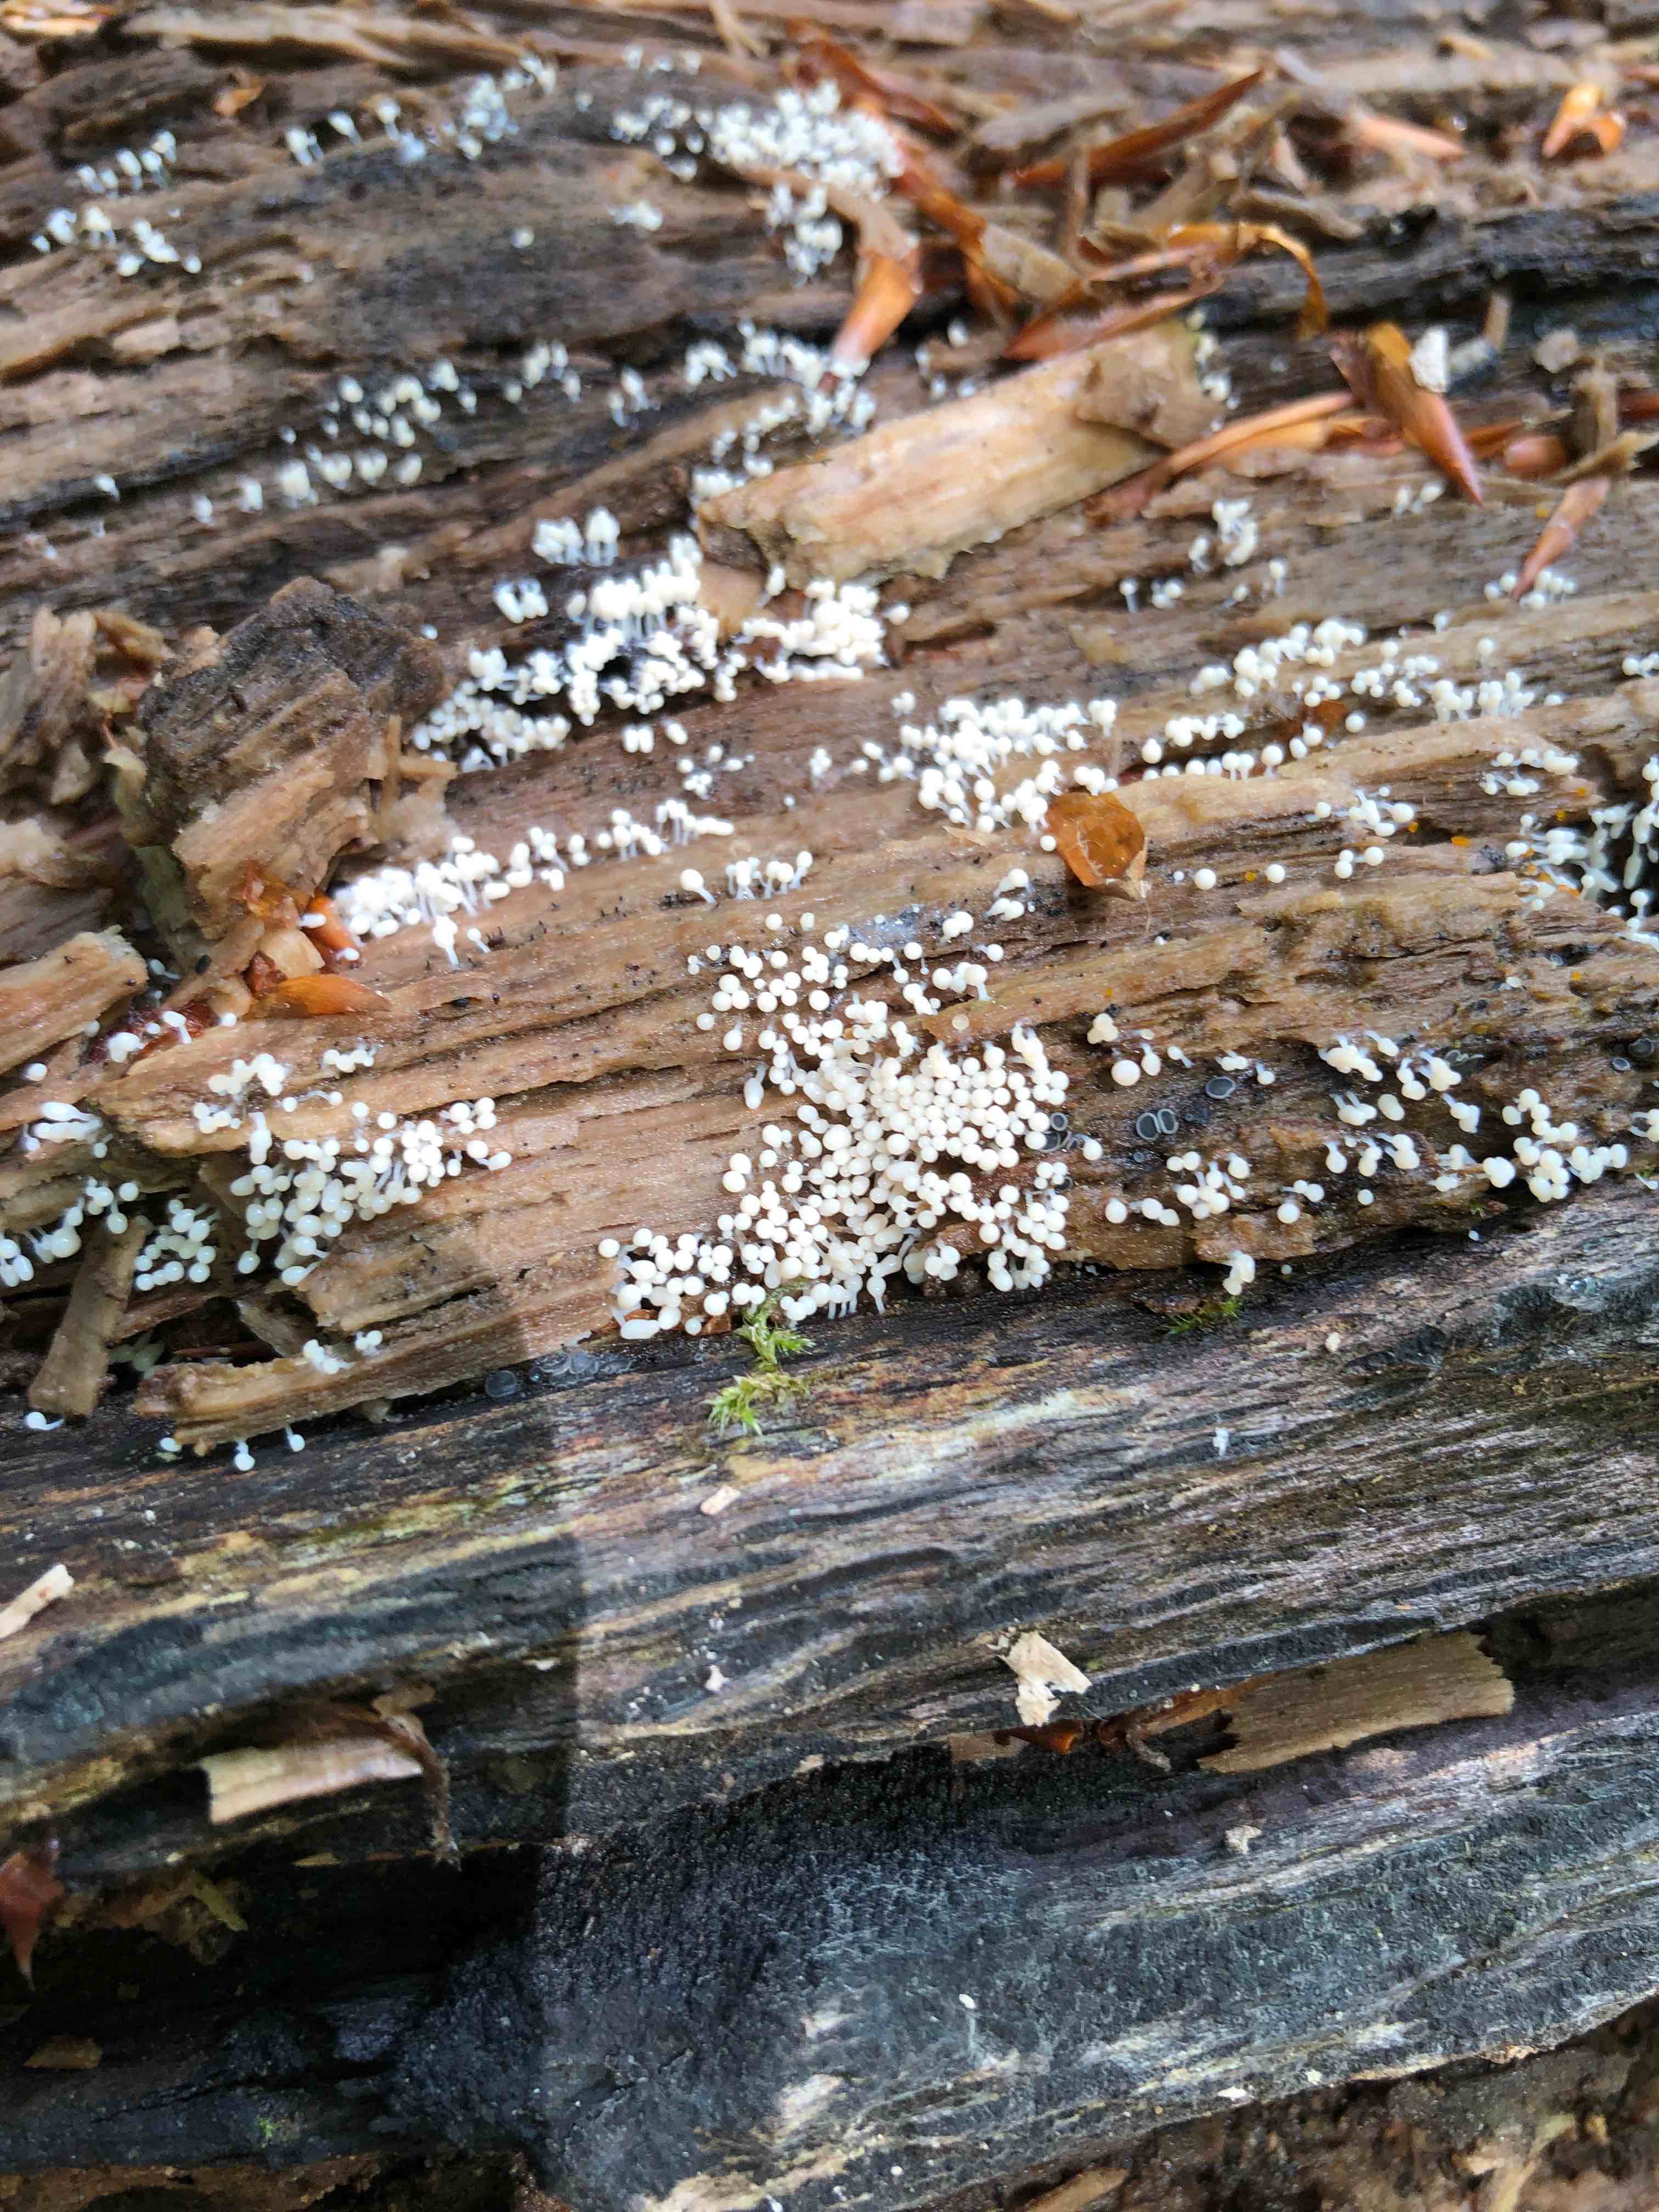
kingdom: Protozoa
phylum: Mycetozoa
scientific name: Mycetozoa
